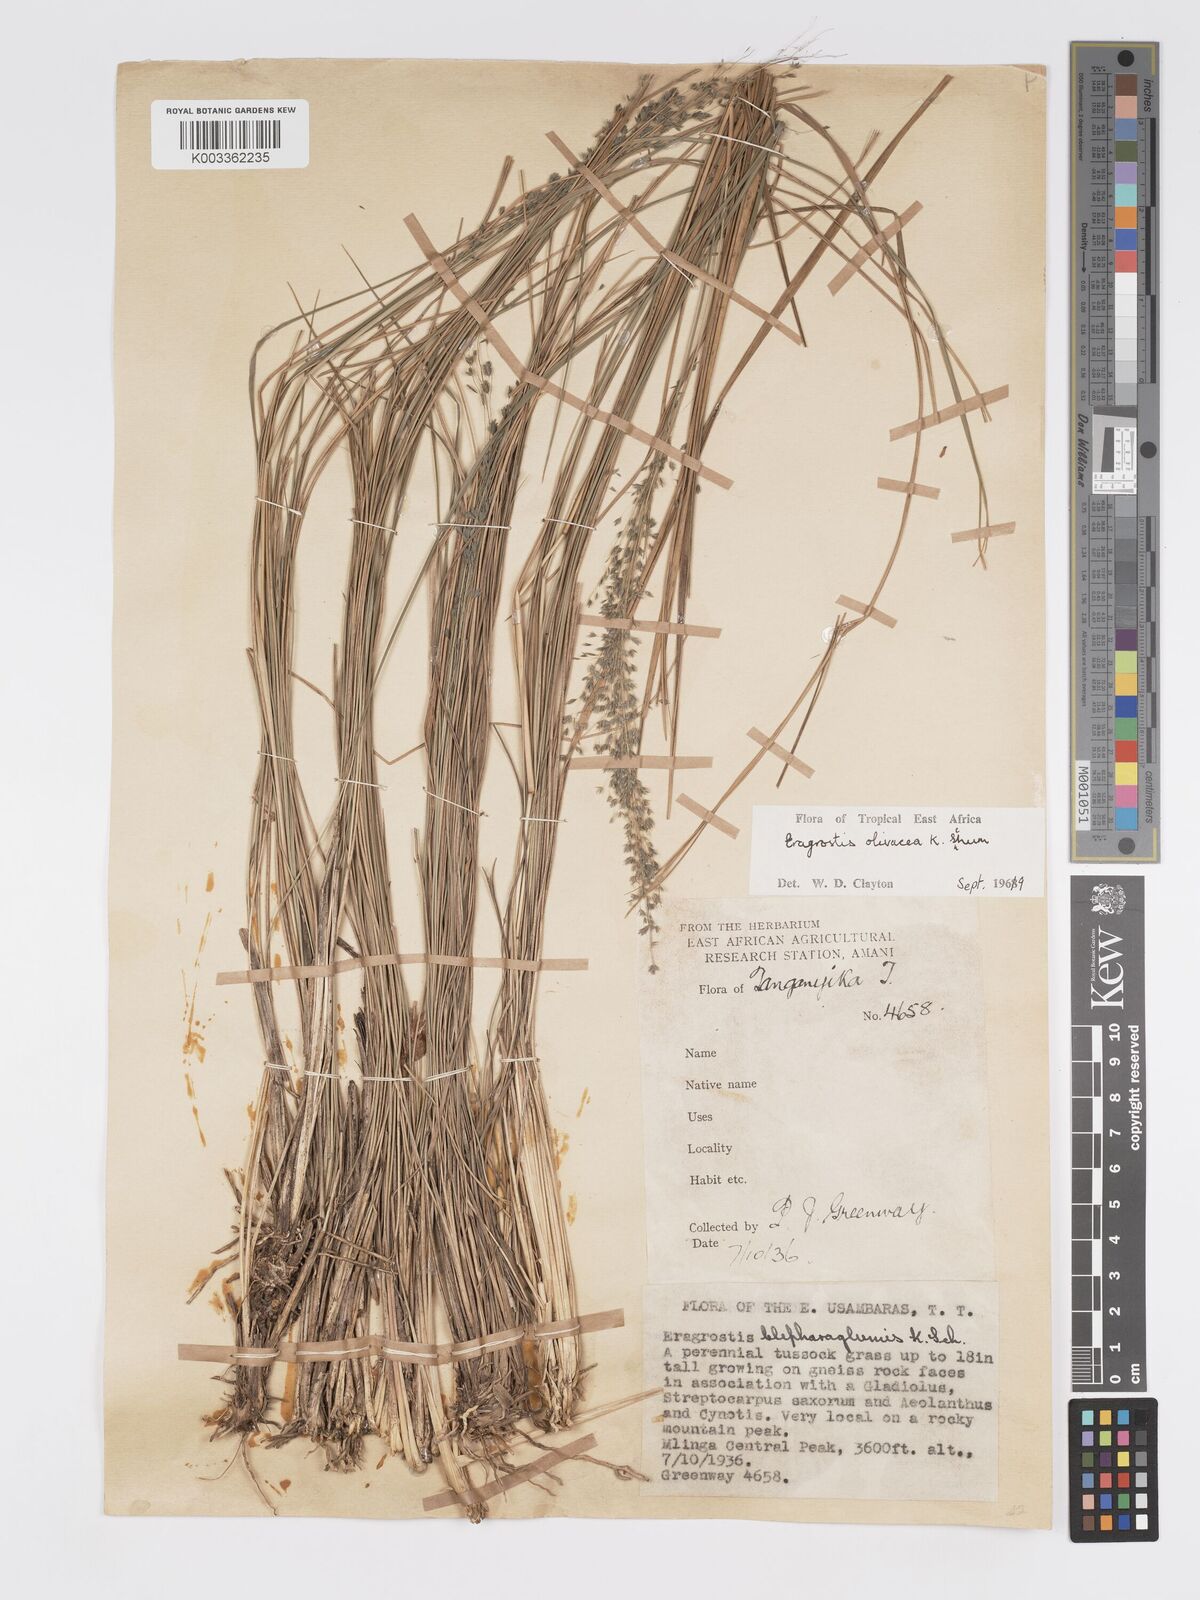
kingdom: Plantae
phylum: Tracheophyta
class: Liliopsida
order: Poales
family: Poaceae
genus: Eragrostis
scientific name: Eragrostis olivacea
